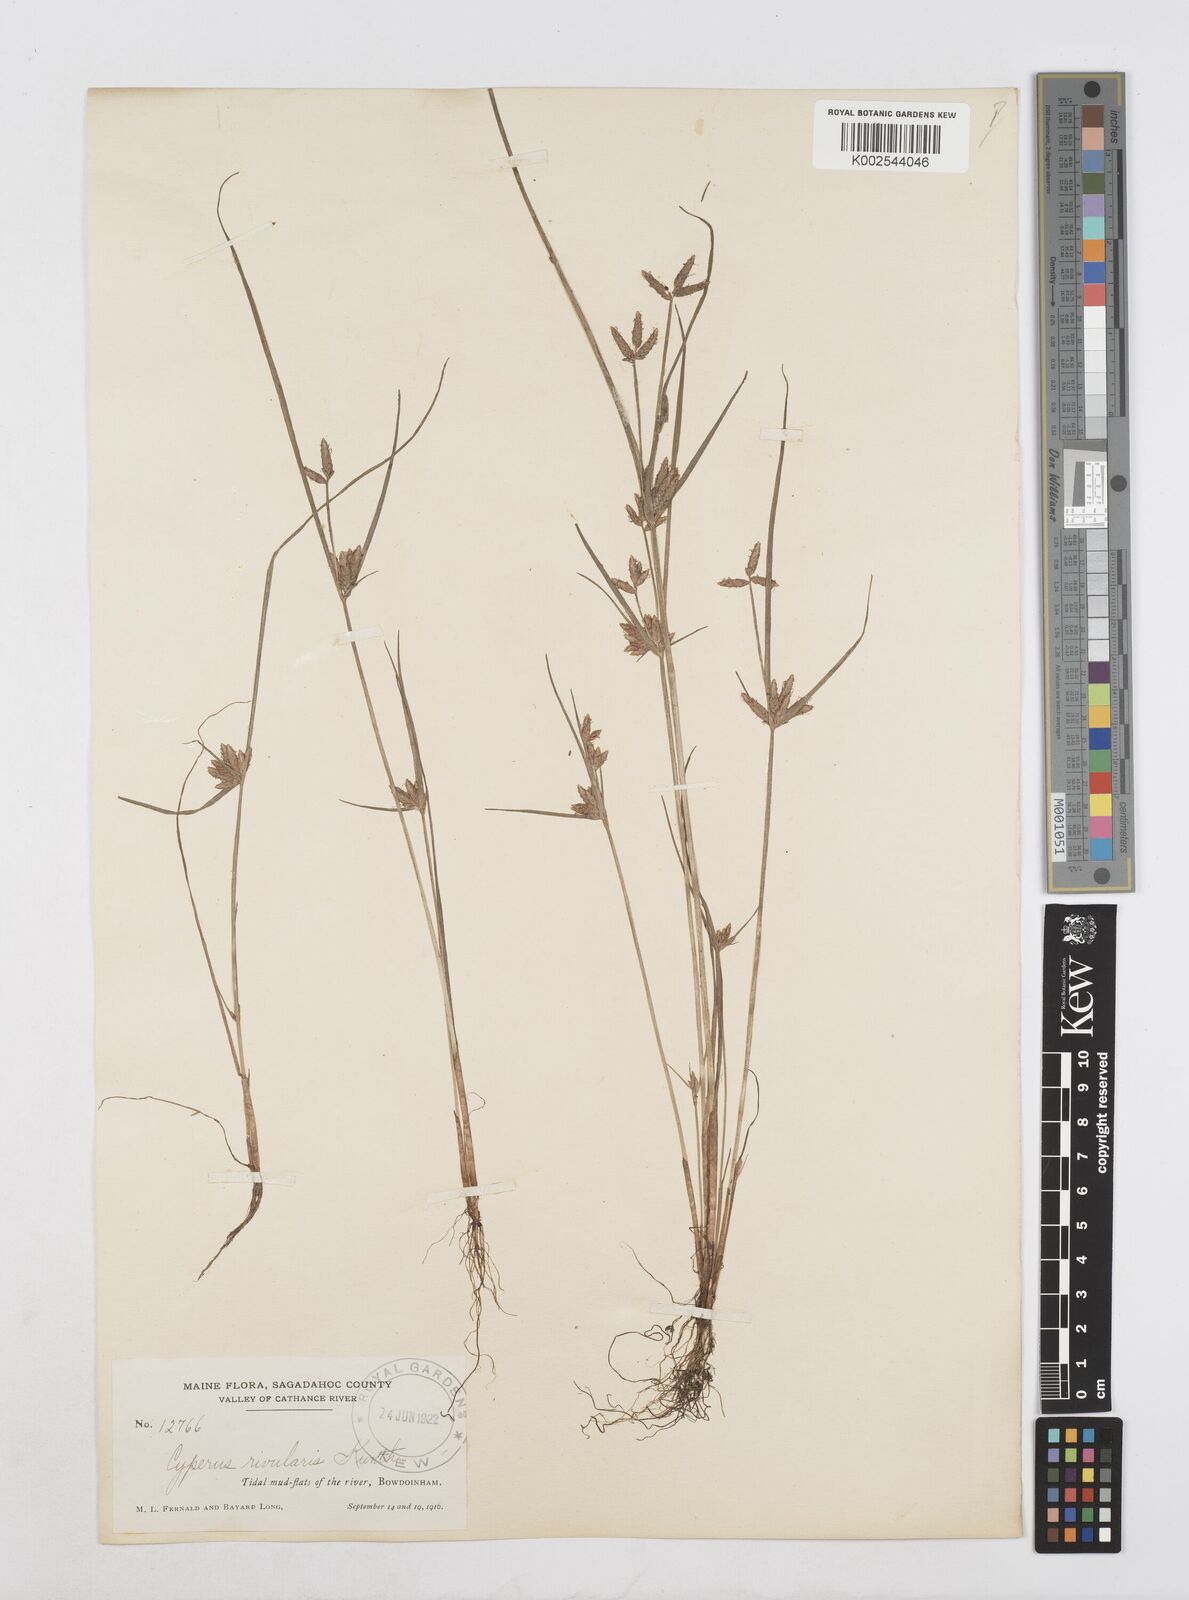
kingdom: Plantae
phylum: Tracheophyta
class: Liliopsida
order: Poales
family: Cyperaceae
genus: Cyperus
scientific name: Cyperus bipartitus
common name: Brook flatsedge
